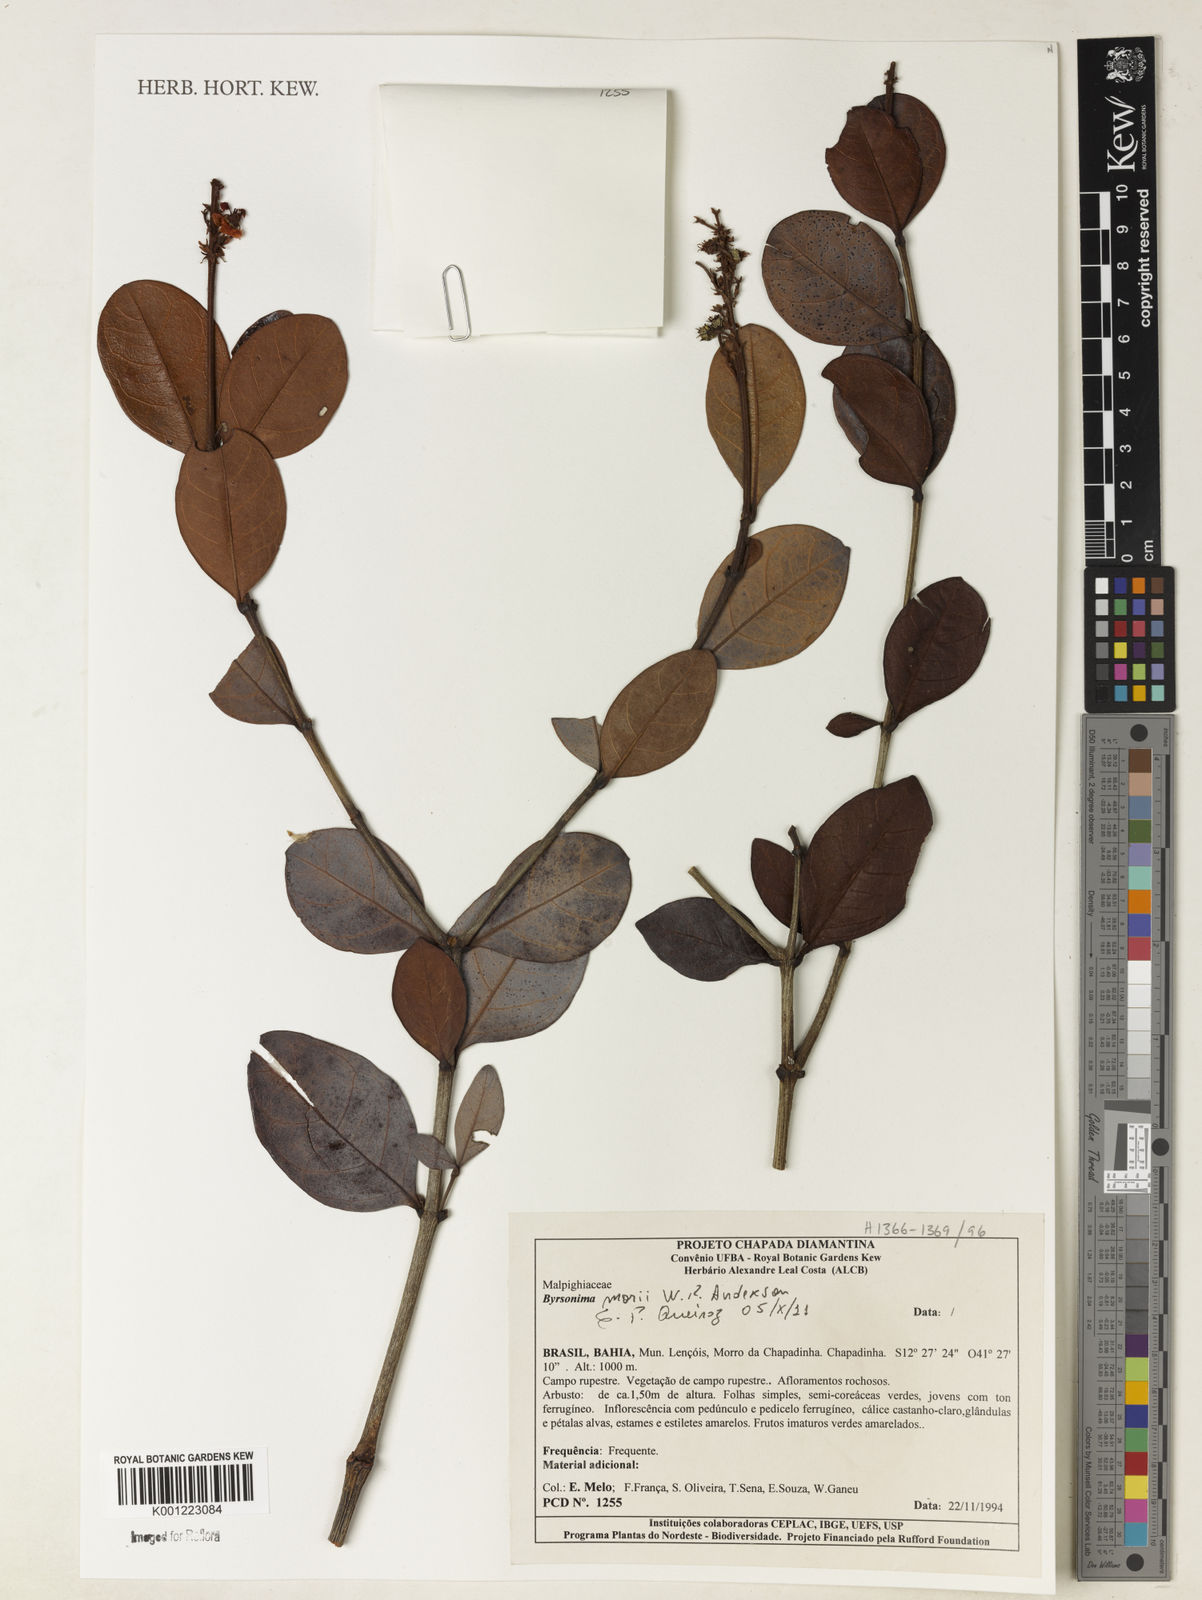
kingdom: Plantae
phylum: Tracheophyta
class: Magnoliopsida
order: Malpighiales
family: Malpighiaceae
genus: Byrsonima
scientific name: Byrsonima morii
